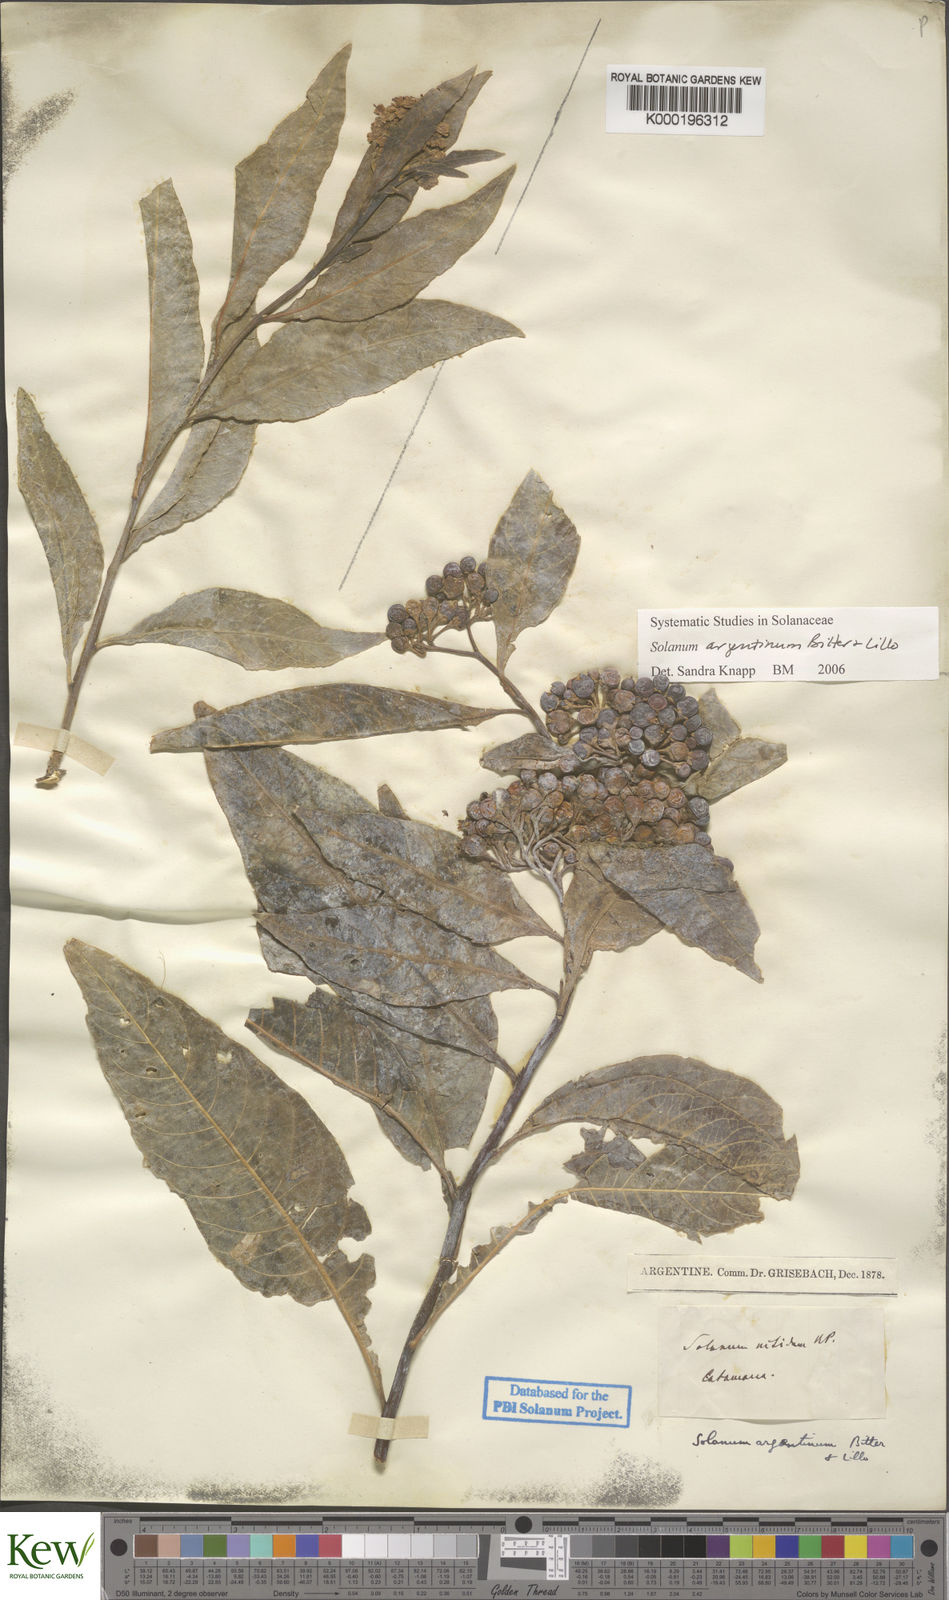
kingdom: Plantae
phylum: Tracheophyta
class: Magnoliopsida
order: Solanales
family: Solanaceae
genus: Solanum
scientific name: Solanum argentinum
